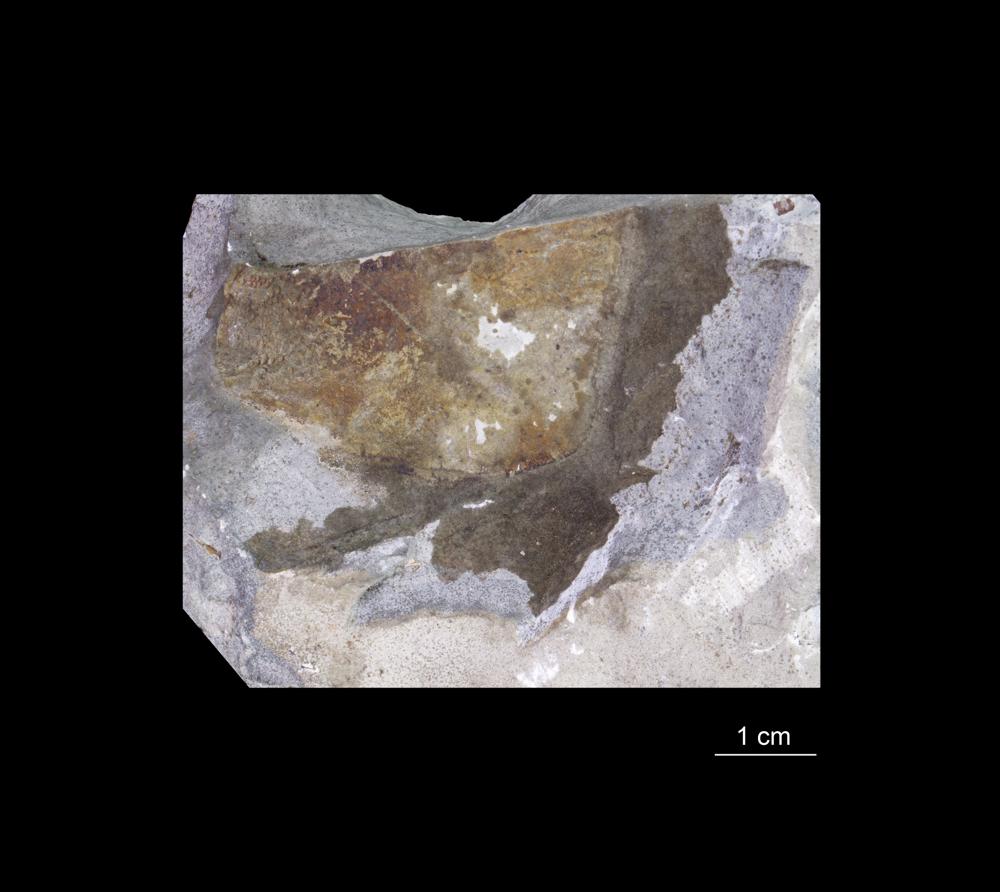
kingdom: Animalia
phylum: Chordata
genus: Pterygotus
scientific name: Pterygotus
